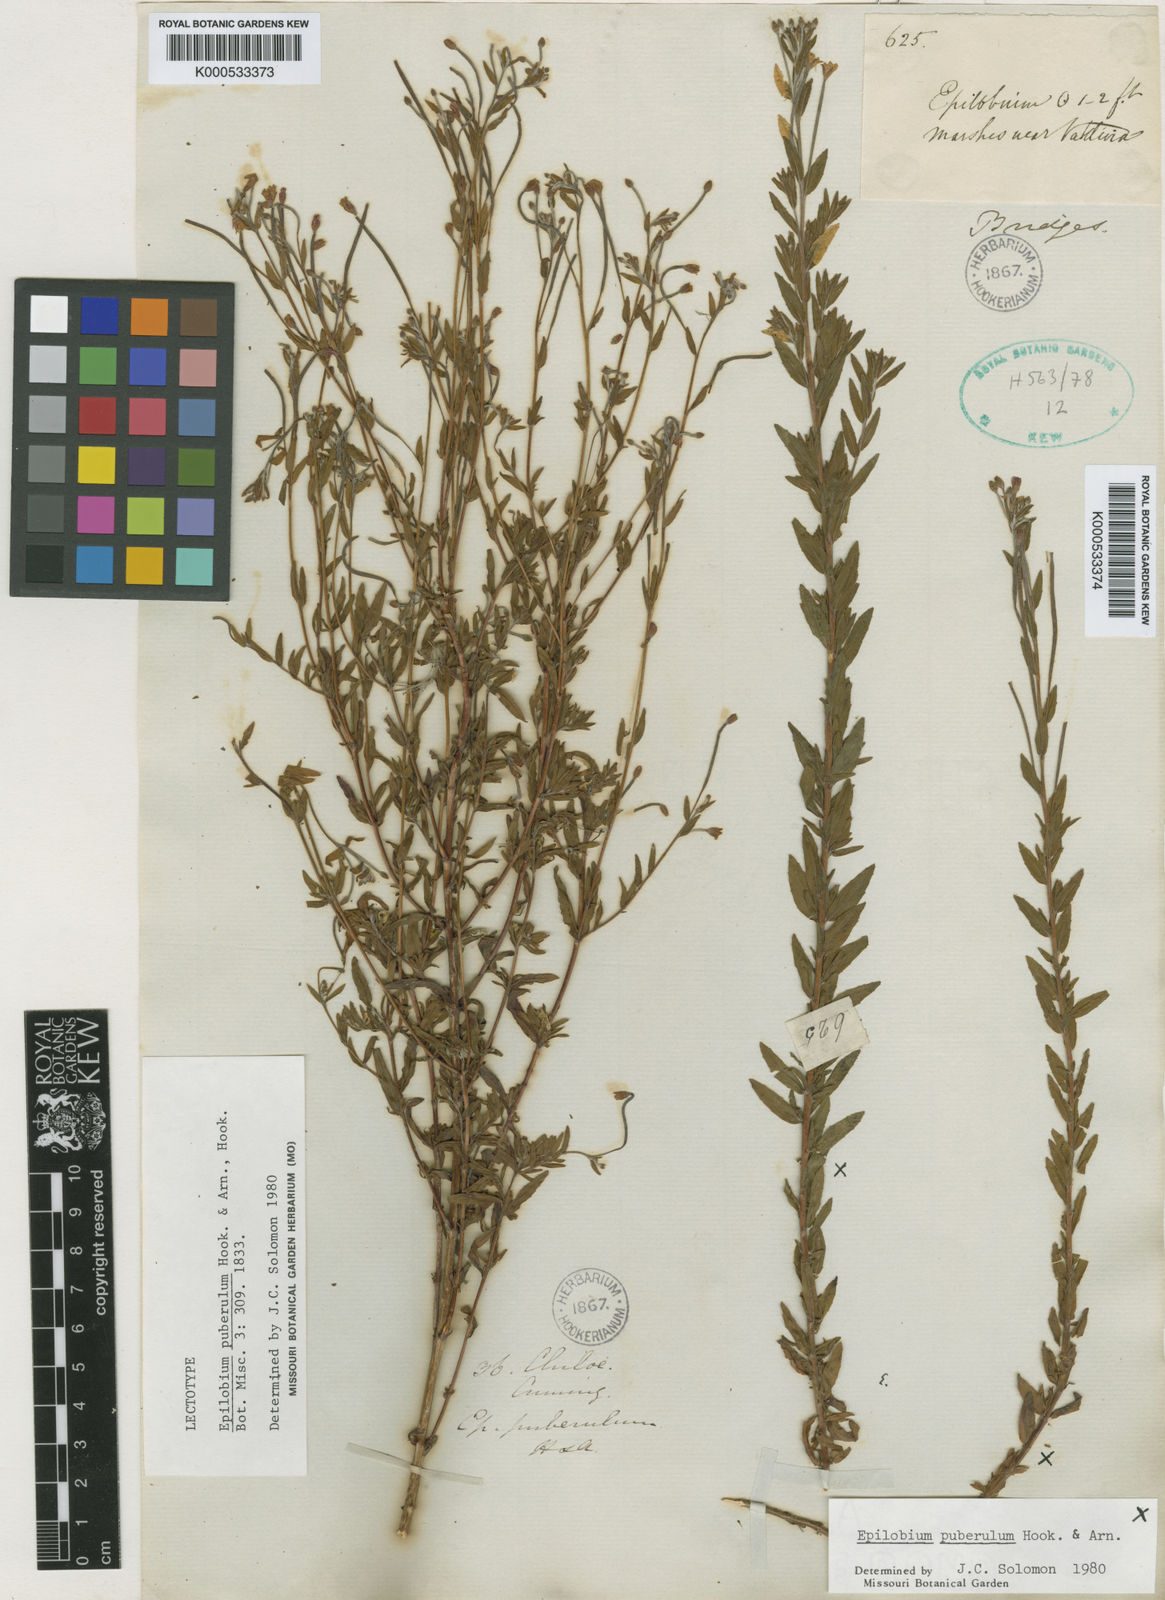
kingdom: Plantae
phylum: Tracheophyta
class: Magnoliopsida
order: Myrtales
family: Onagraceae
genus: Epilobium
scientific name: Epilobium puberulum
